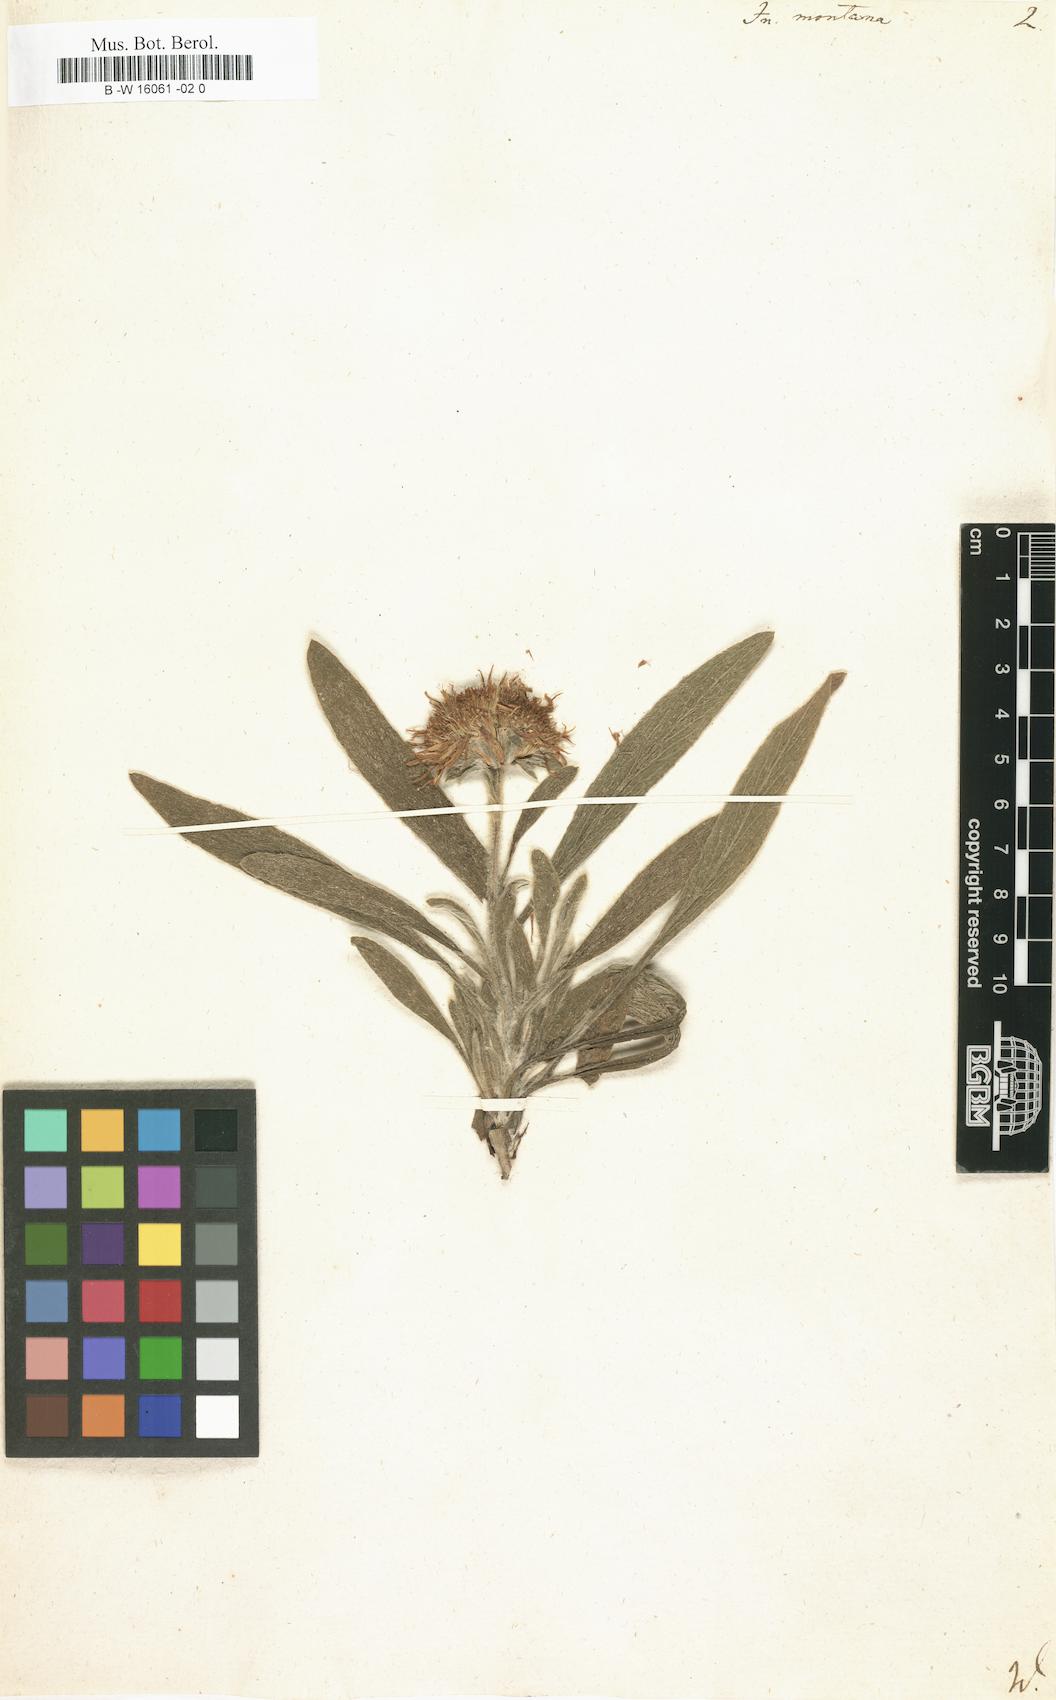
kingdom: Plantae
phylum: Tracheophyta
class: Magnoliopsida
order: Asterales
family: Asteraceae
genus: Inula
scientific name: Inula montana
